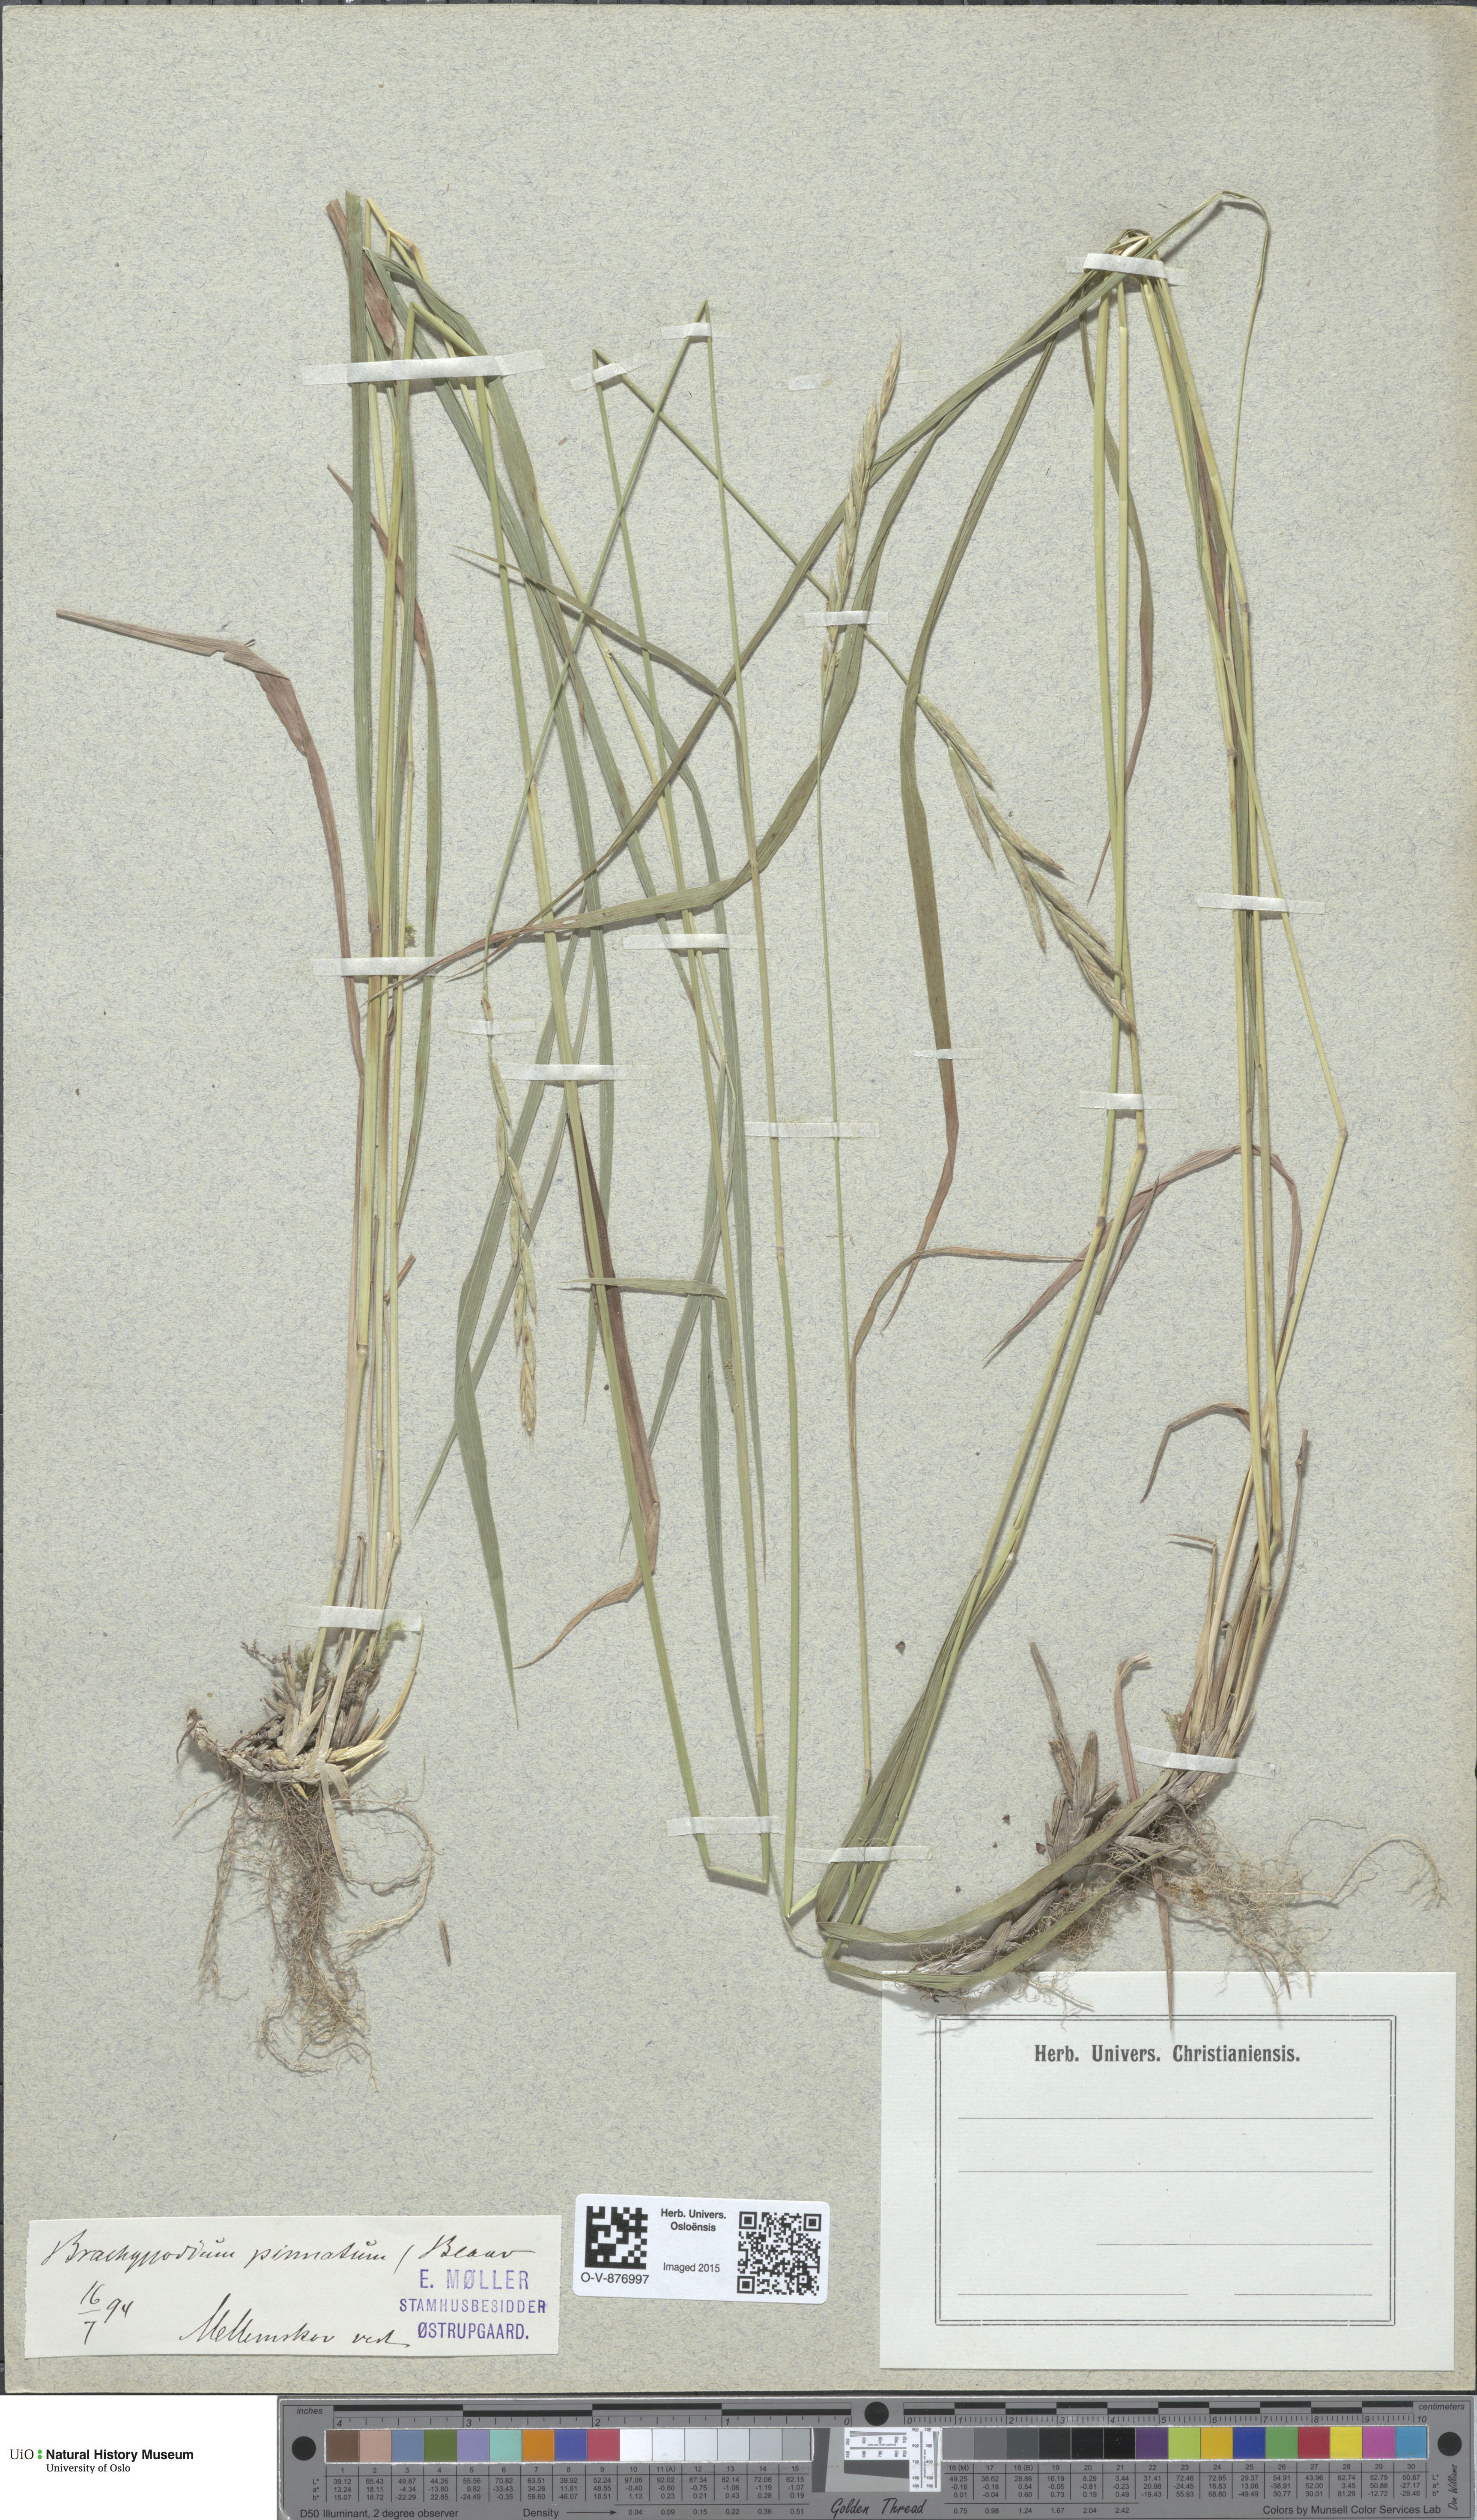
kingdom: Plantae
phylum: Tracheophyta
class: Liliopsida
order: Poales
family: Poaceae
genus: Brachypodium
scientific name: Brachypodium pinnatum
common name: Tor grass
